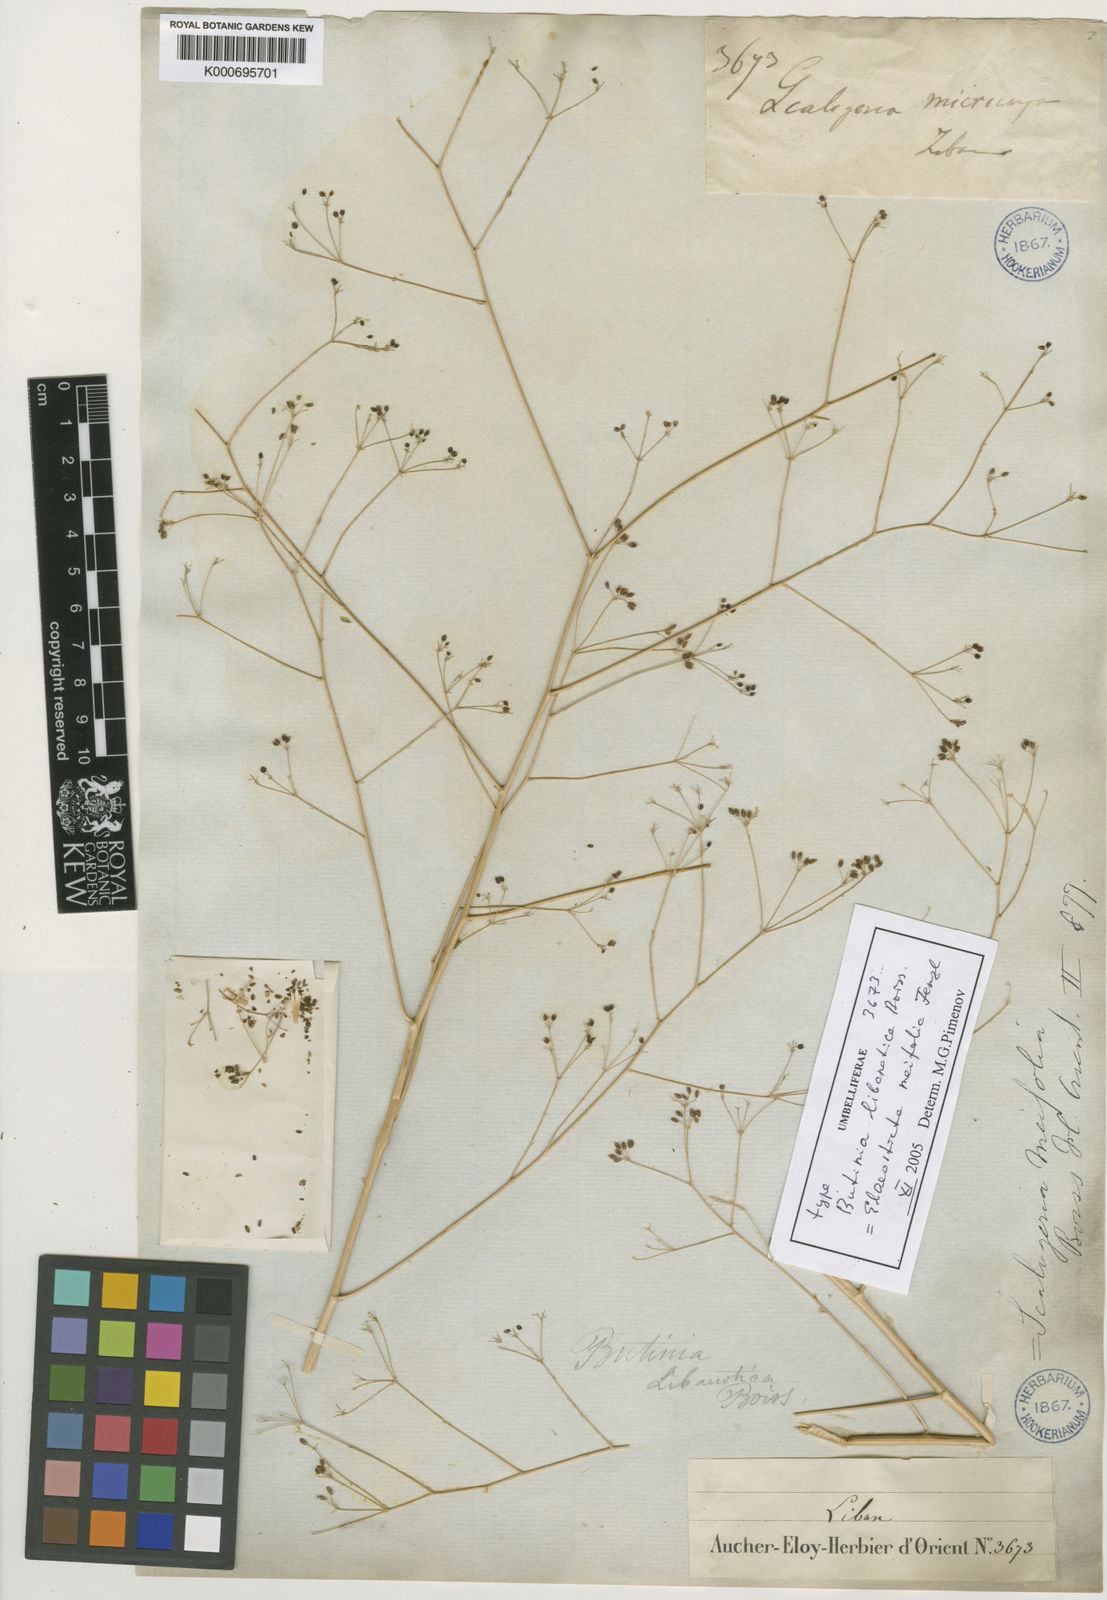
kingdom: Plantae
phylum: Tracheophyta
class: Magnoliopsida
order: Apiales
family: Apiaceae
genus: Elaeosticta
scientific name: Elaeosticta meifolia
